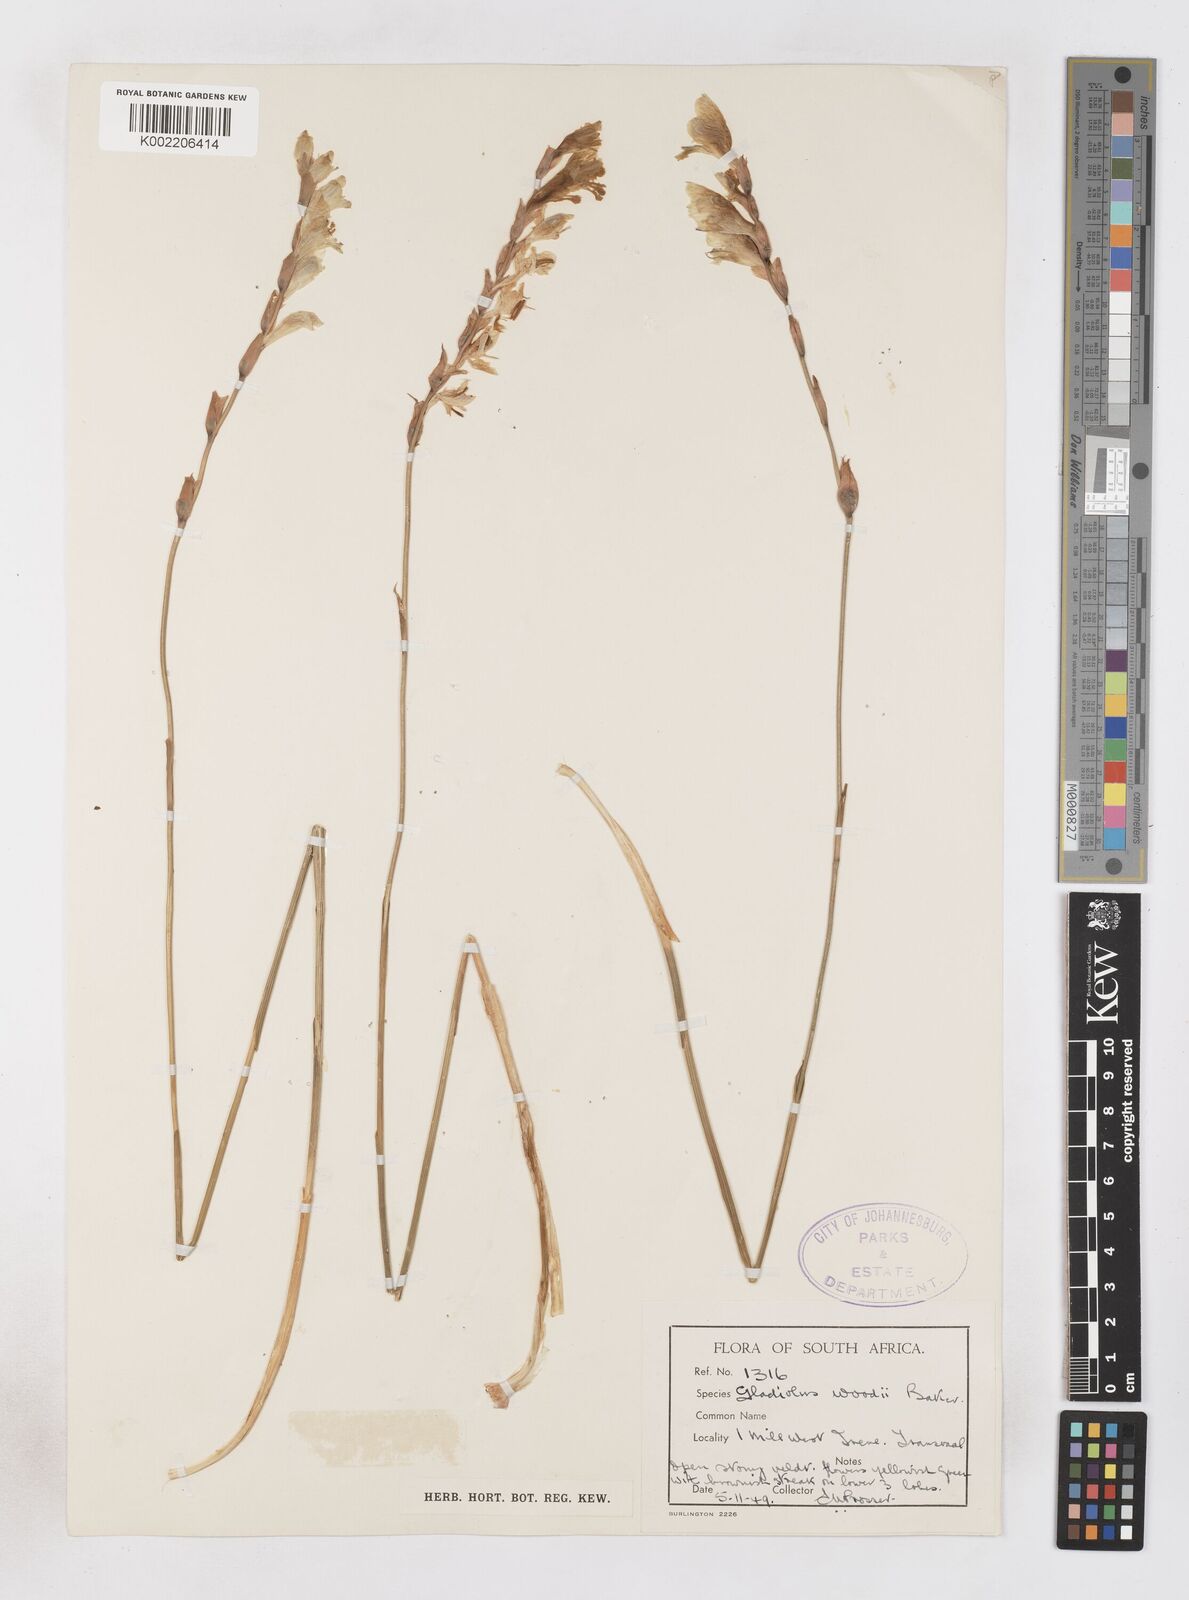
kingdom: Plantae
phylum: Tracheophyta
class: Liliopsida
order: Asparagales
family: Iridaceae
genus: Gladiolus
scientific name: Gladiolus woodii
